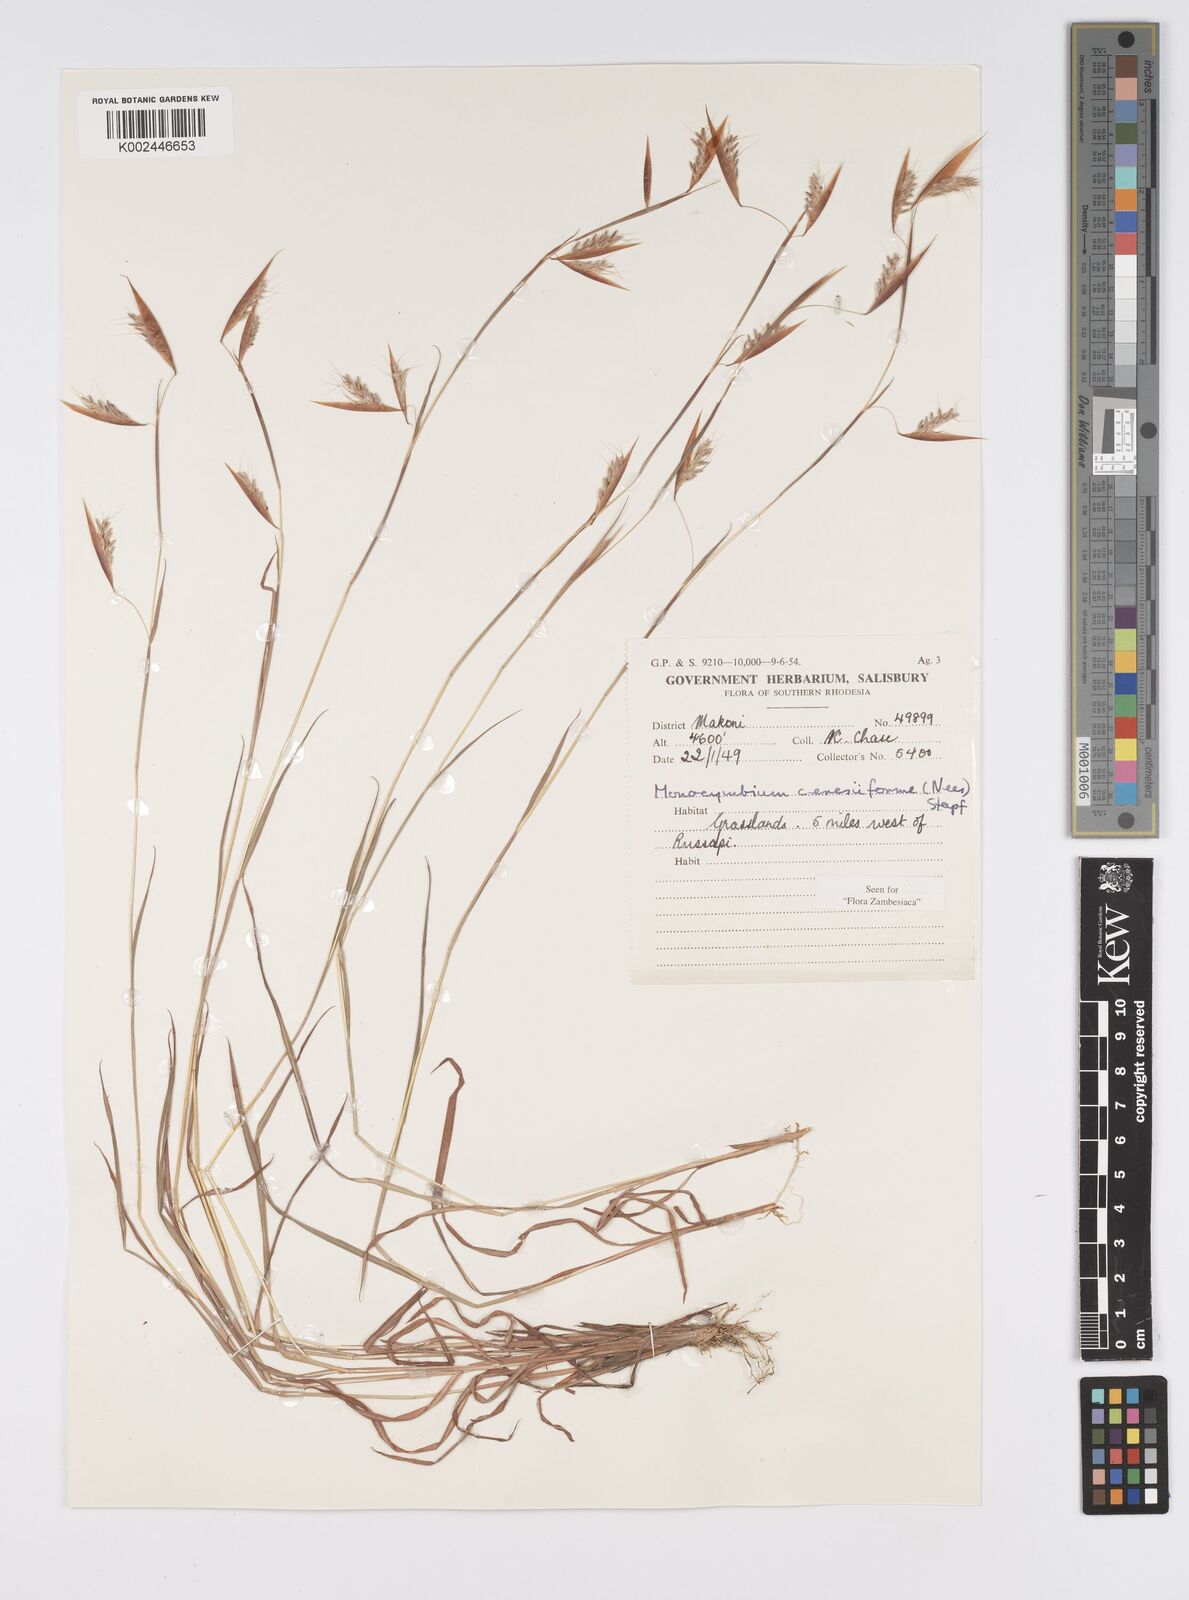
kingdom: Plantae
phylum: Tracheophyta
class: Liliopsida
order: Poales
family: Poaceae
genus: Monocymbium
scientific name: Monocymbium ceresiiforme
